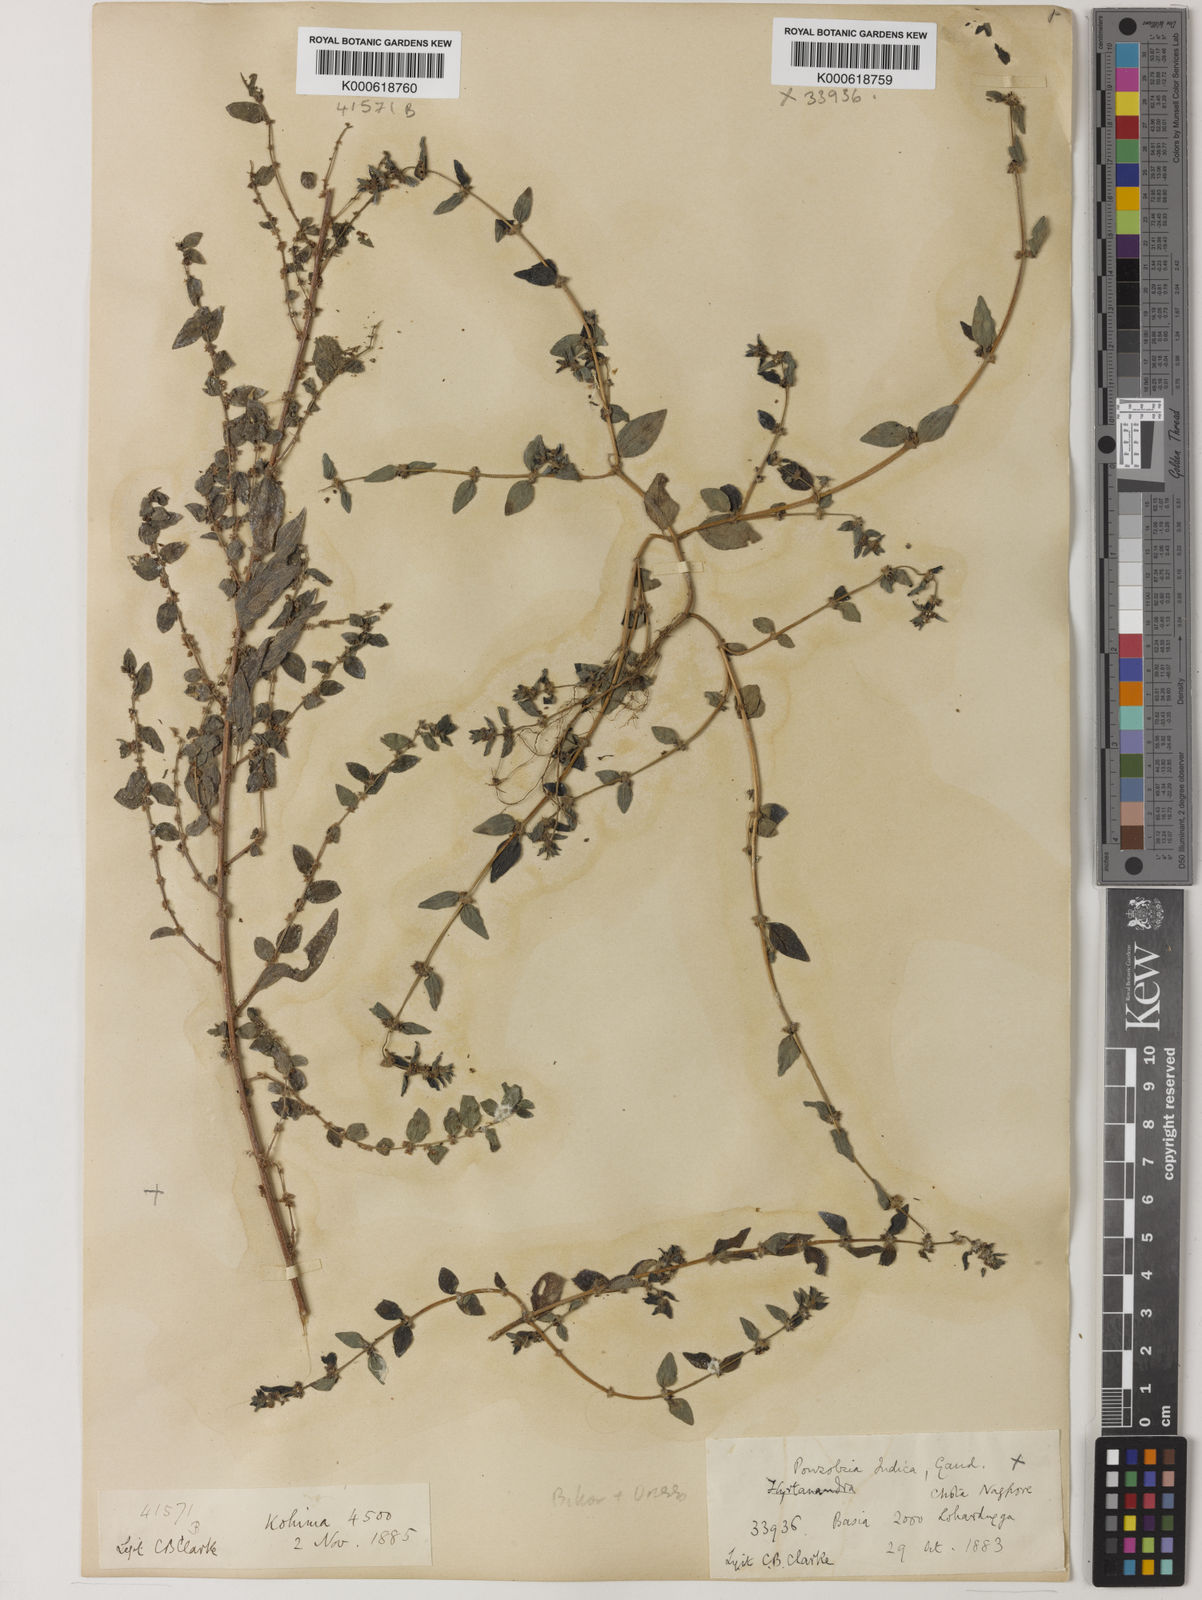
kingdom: Plantae
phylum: Tracheophyta
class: Magnoliopsida
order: Rosales
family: Urticaceae
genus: Pouzolzia
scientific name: Pouzolzia zeylanica
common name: Graceful pouzolzsbush
